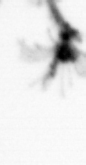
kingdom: Animalia
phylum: Cnidaria
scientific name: Cnidaria
